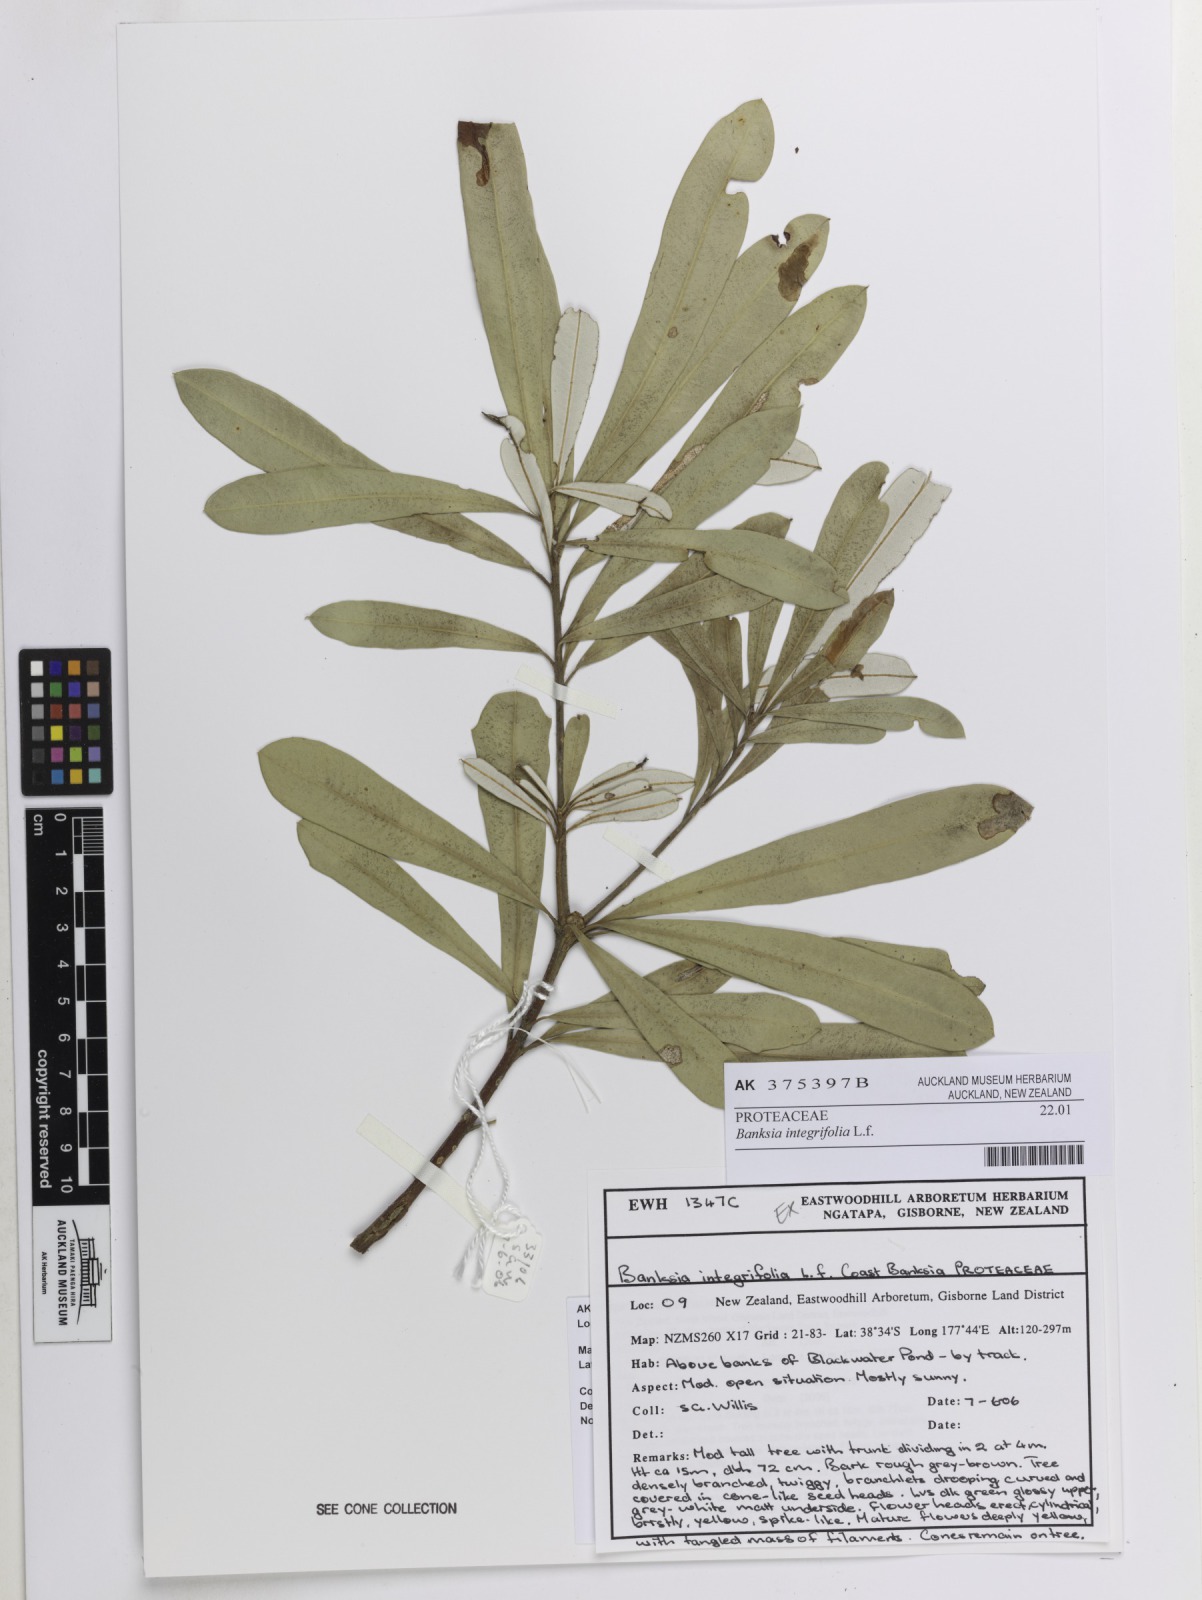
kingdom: Plantae
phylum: Tracheophyta
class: Magnoliopsida
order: Proteales
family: Proteaceae
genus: Banksia
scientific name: Banksia integrifolia
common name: White-honeysuckle
